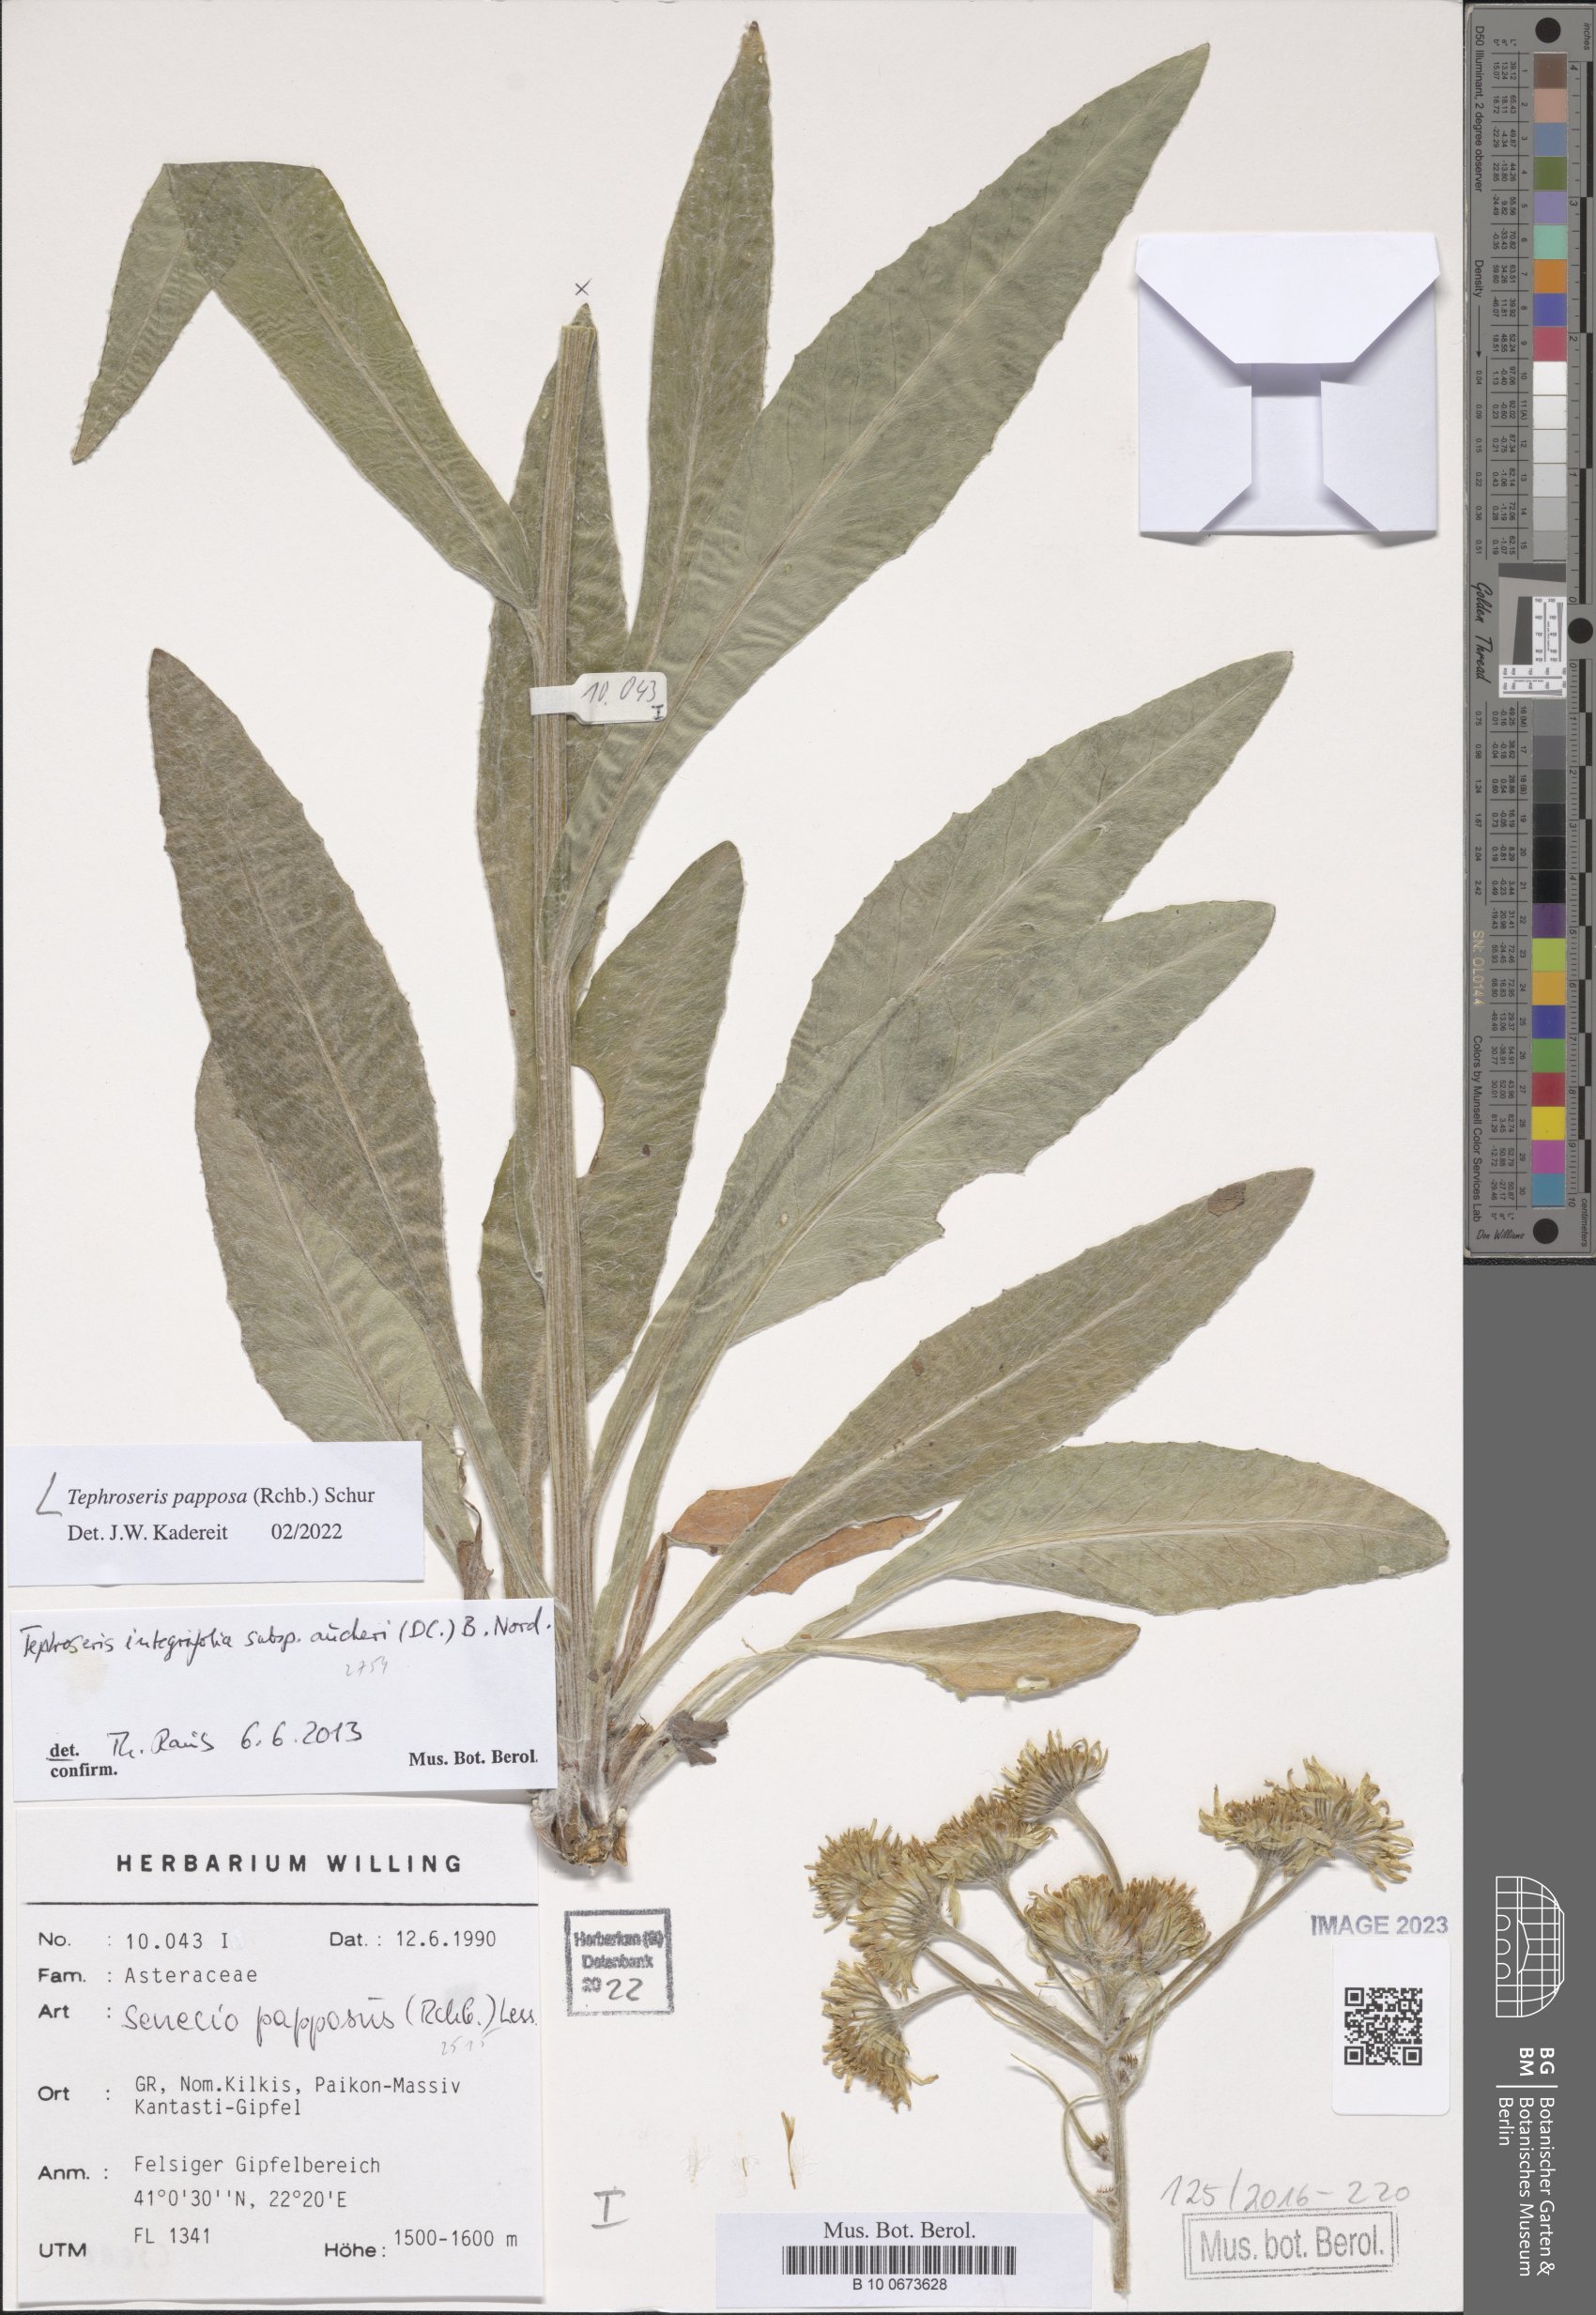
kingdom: Plantae
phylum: Tracheophyta
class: Magnoliopsida
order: Asterales
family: Asteraceae
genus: Tephroseris
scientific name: Tephroseris papposa
